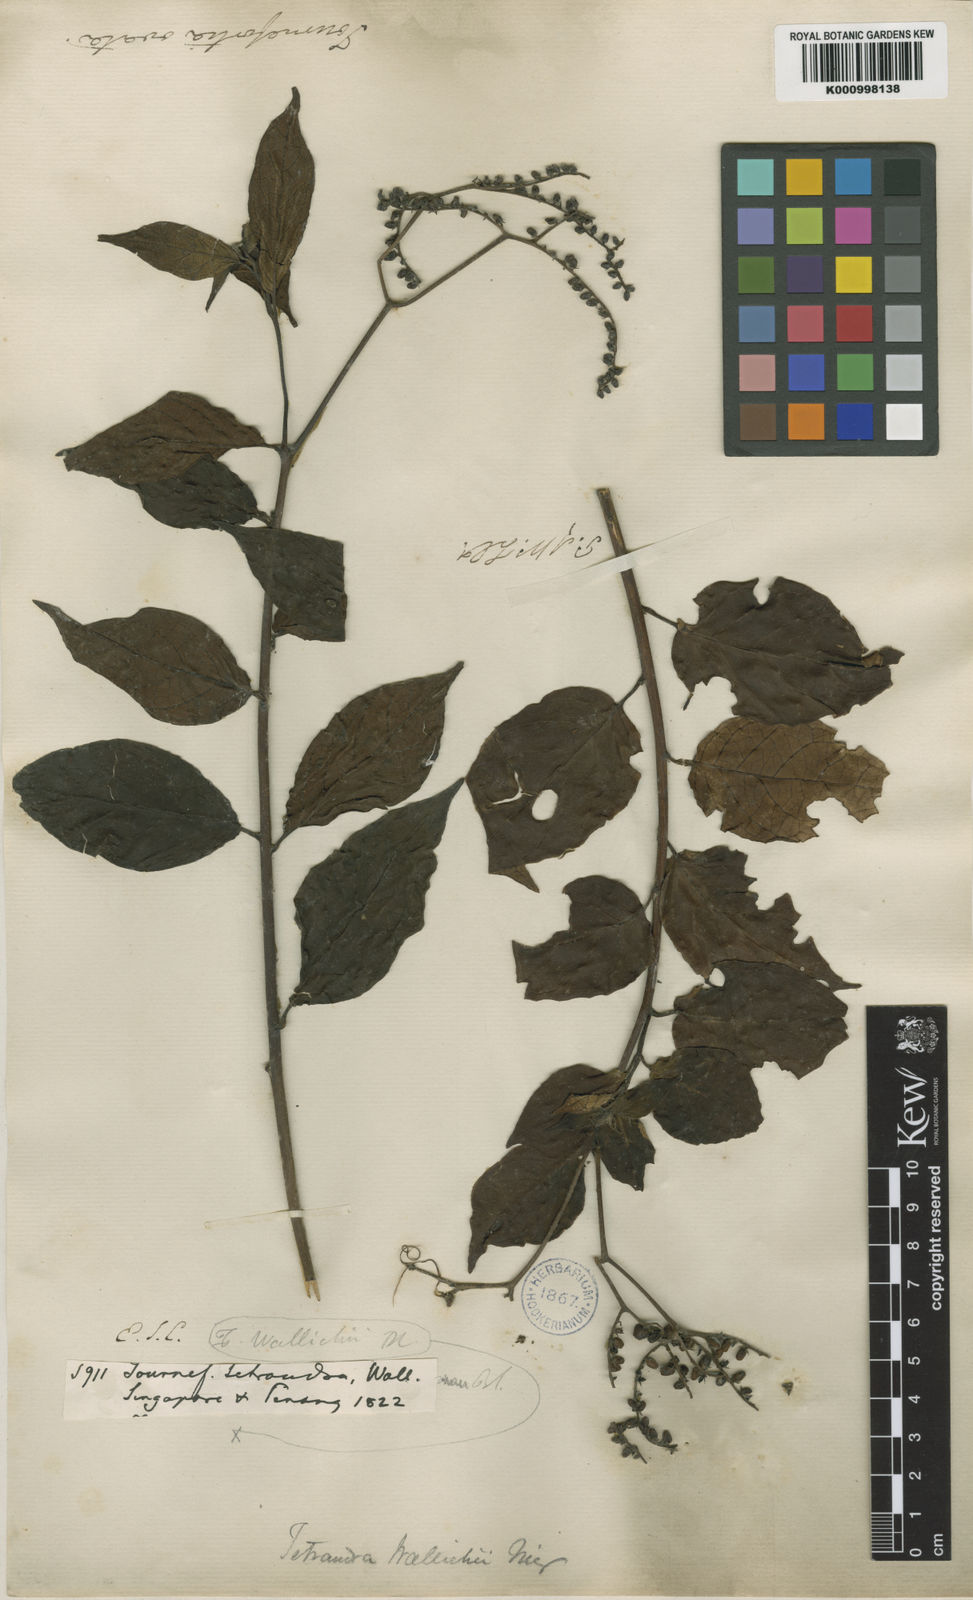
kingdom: Plantae
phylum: Tracheophyta
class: Magnoliopsida
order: Boraginales
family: Heliotropiaceae
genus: Heliotropium
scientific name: Heliotropium biblianum
